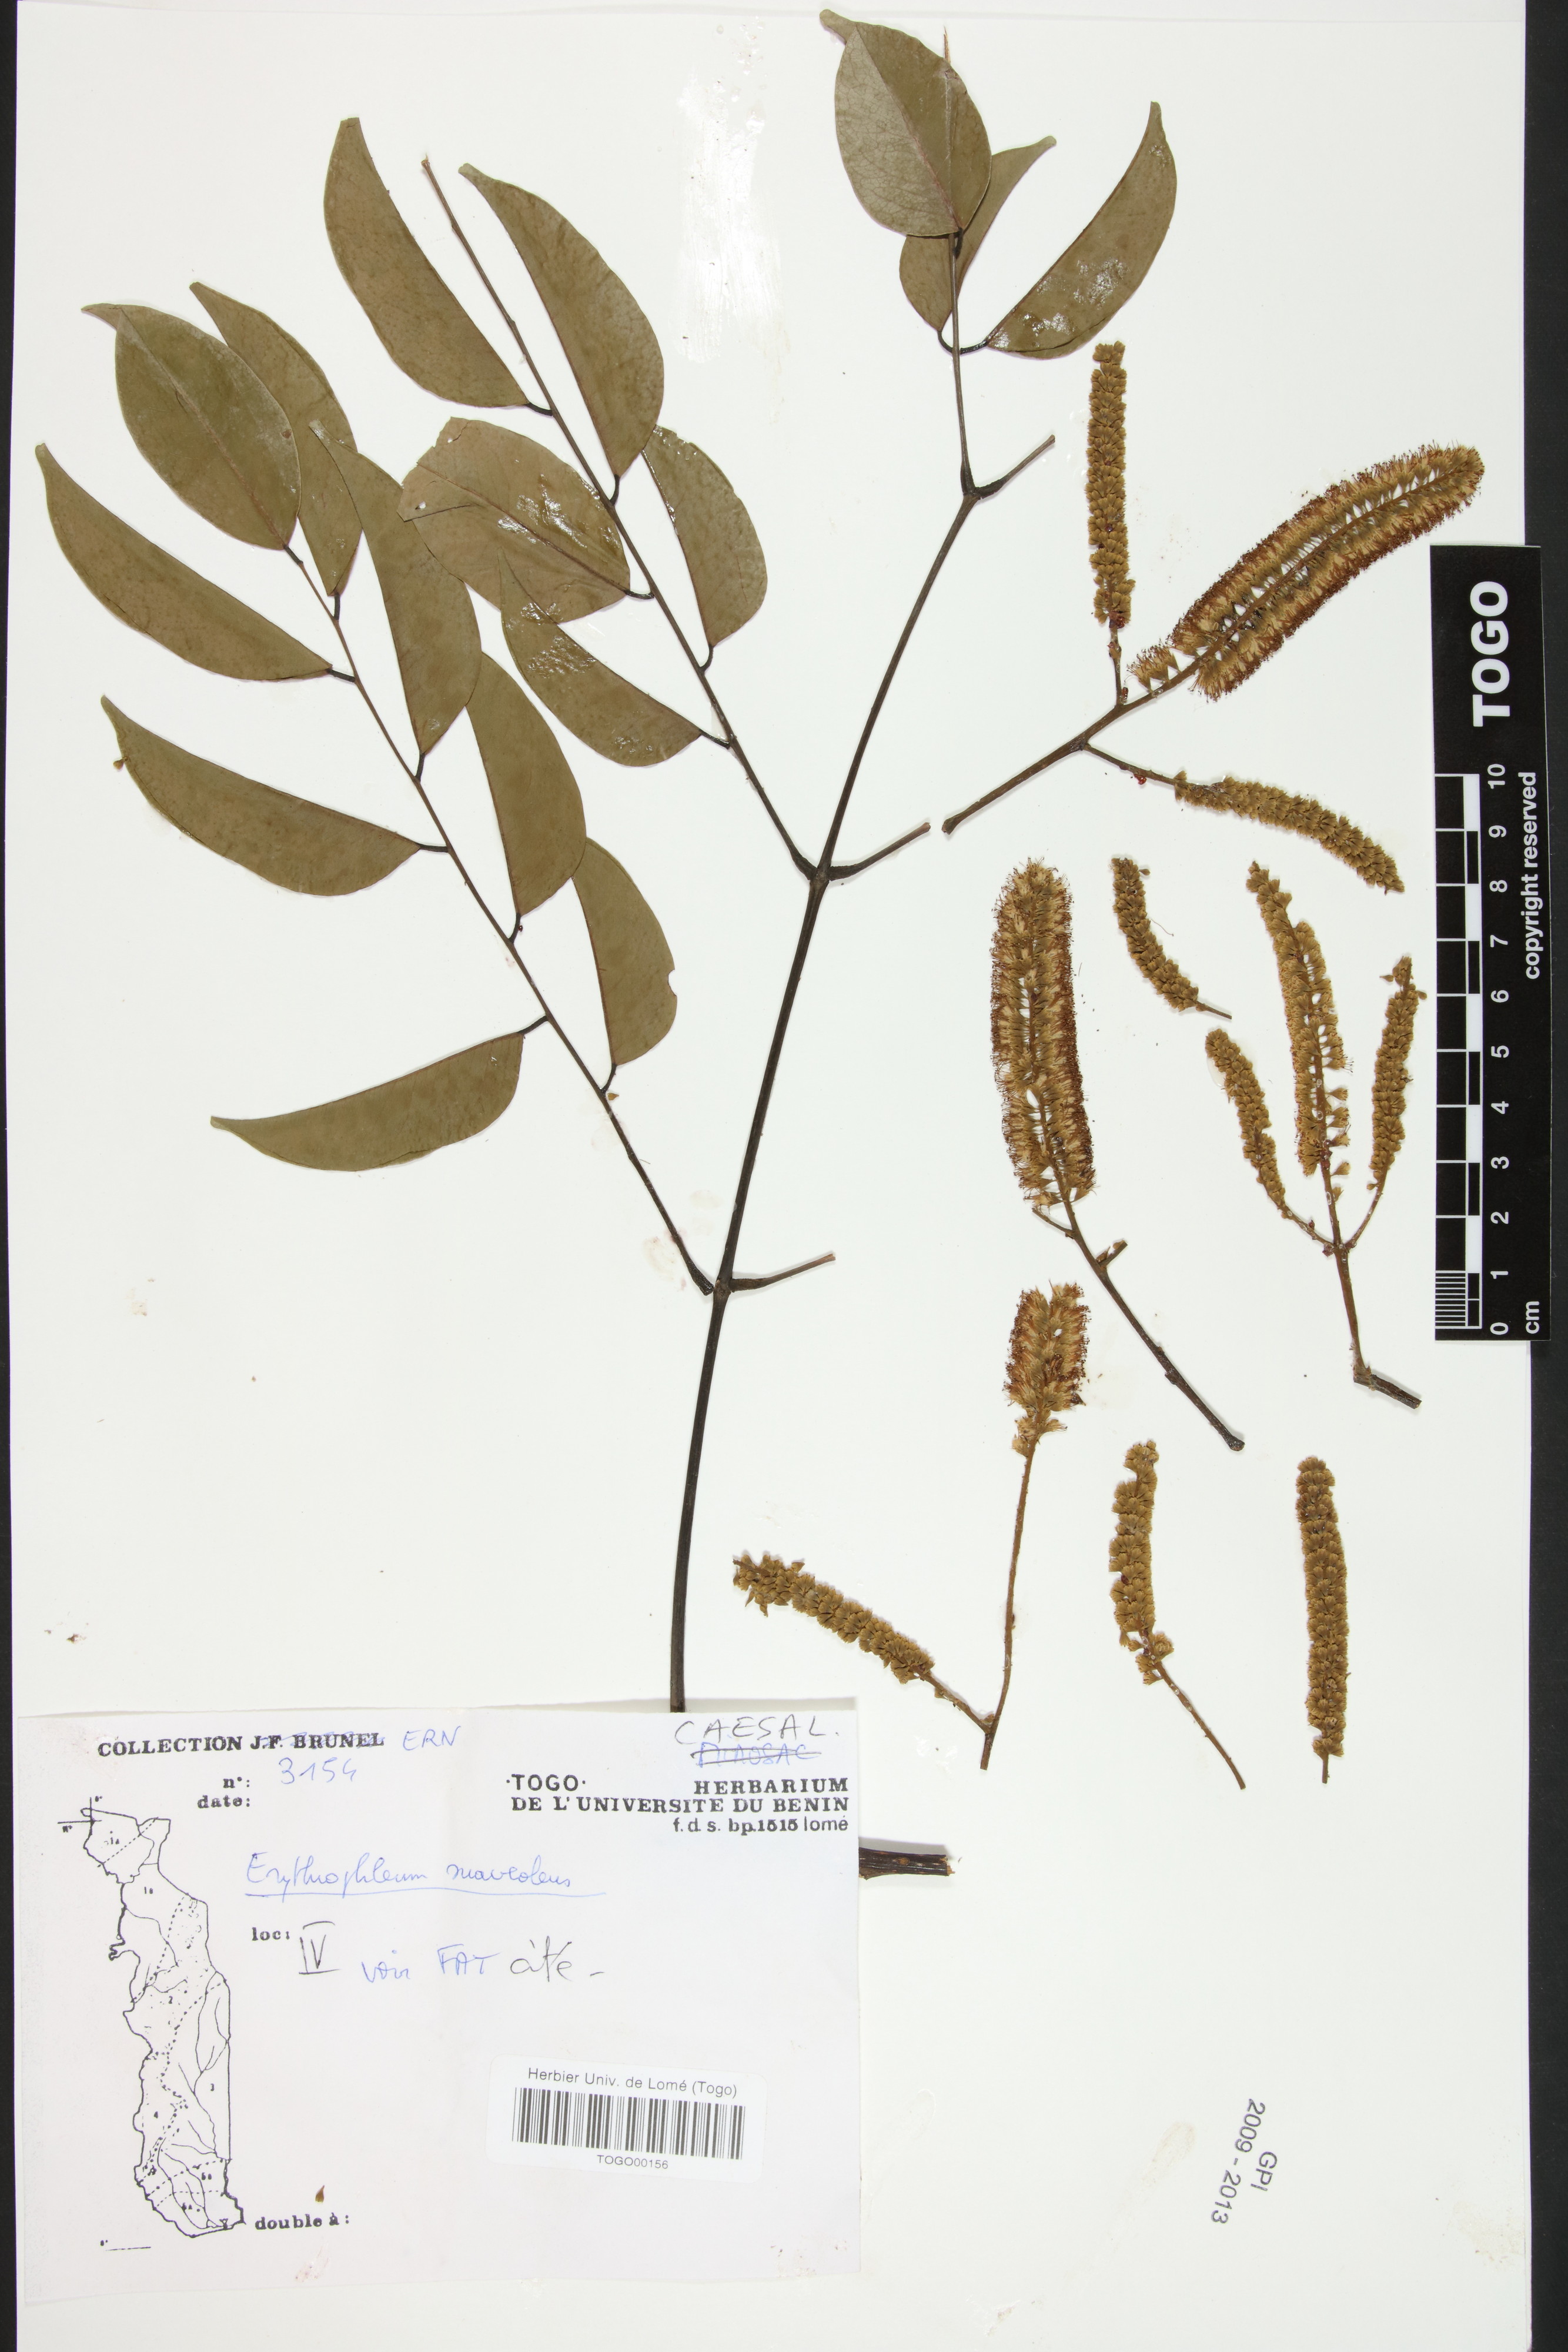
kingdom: Plantae
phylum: Tracheophyta
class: Magnoliopsida
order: Fabales
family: Fabaceae
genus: Erythrophleum
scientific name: Erythrophleum suaveolens
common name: Ordeal tree
